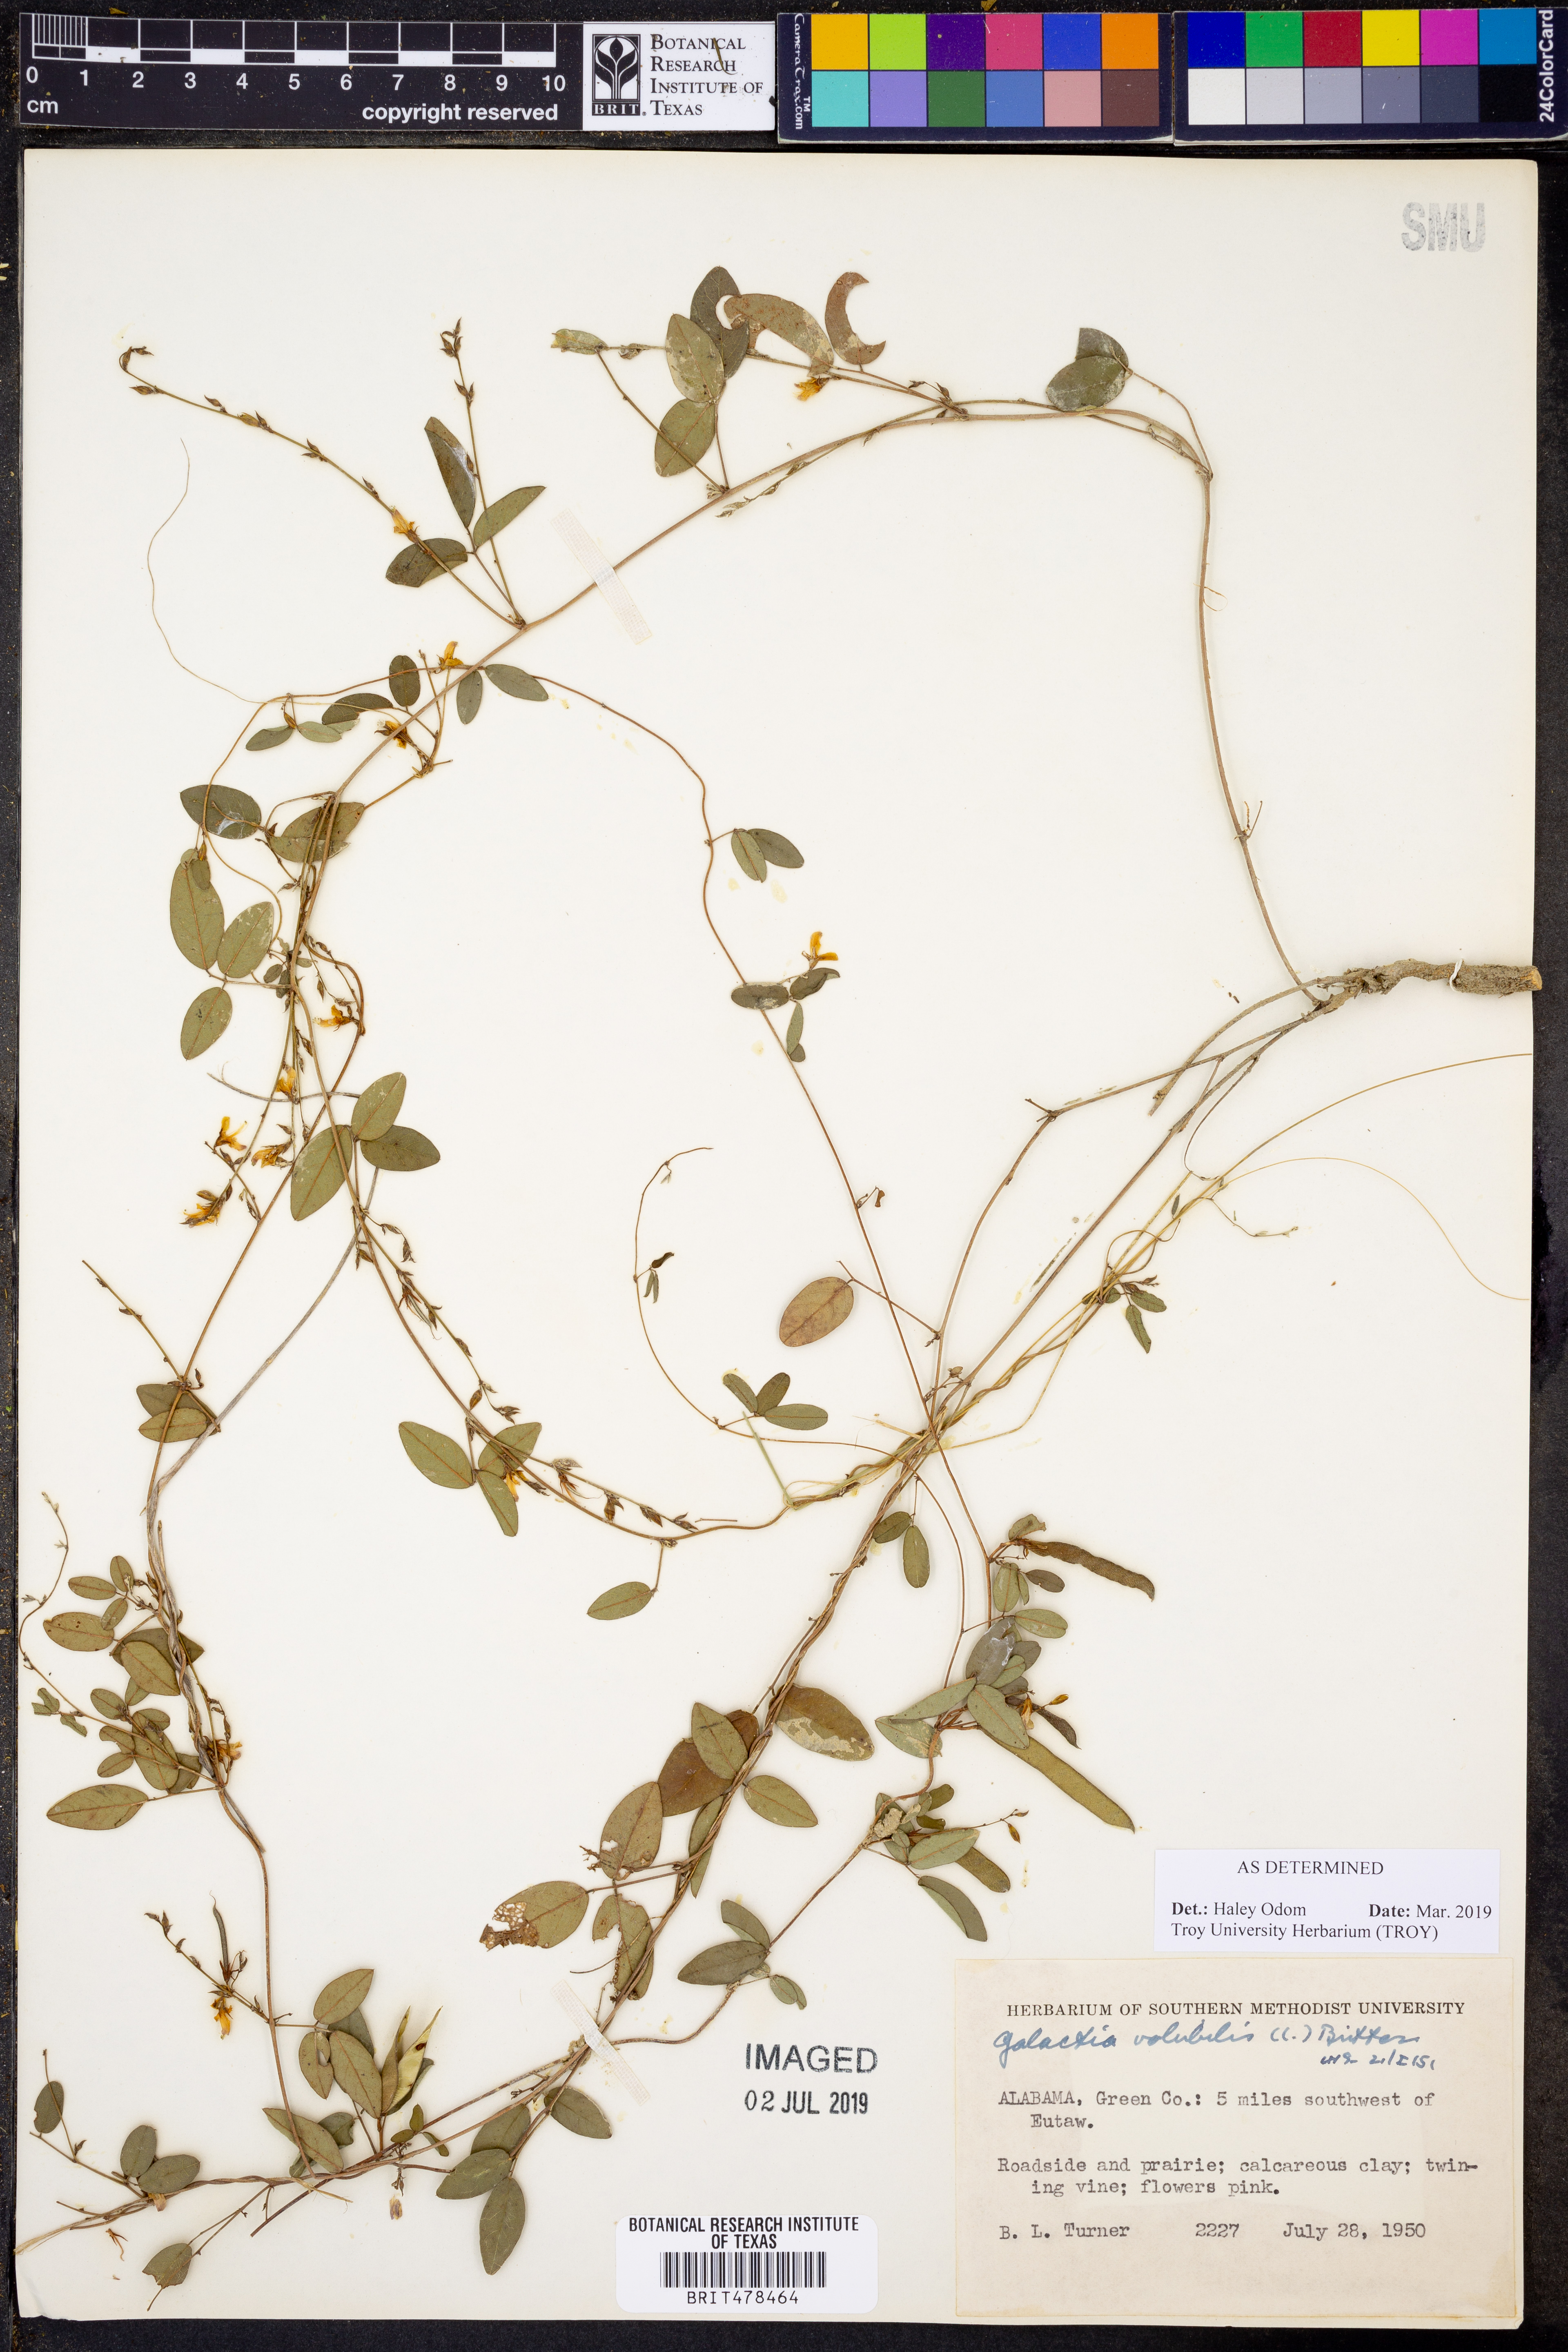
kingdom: Plantae
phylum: Tracheophyta
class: Magnoliopsida
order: Fabales
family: Fabaceae
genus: Galactia
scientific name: Galactia volubilis
